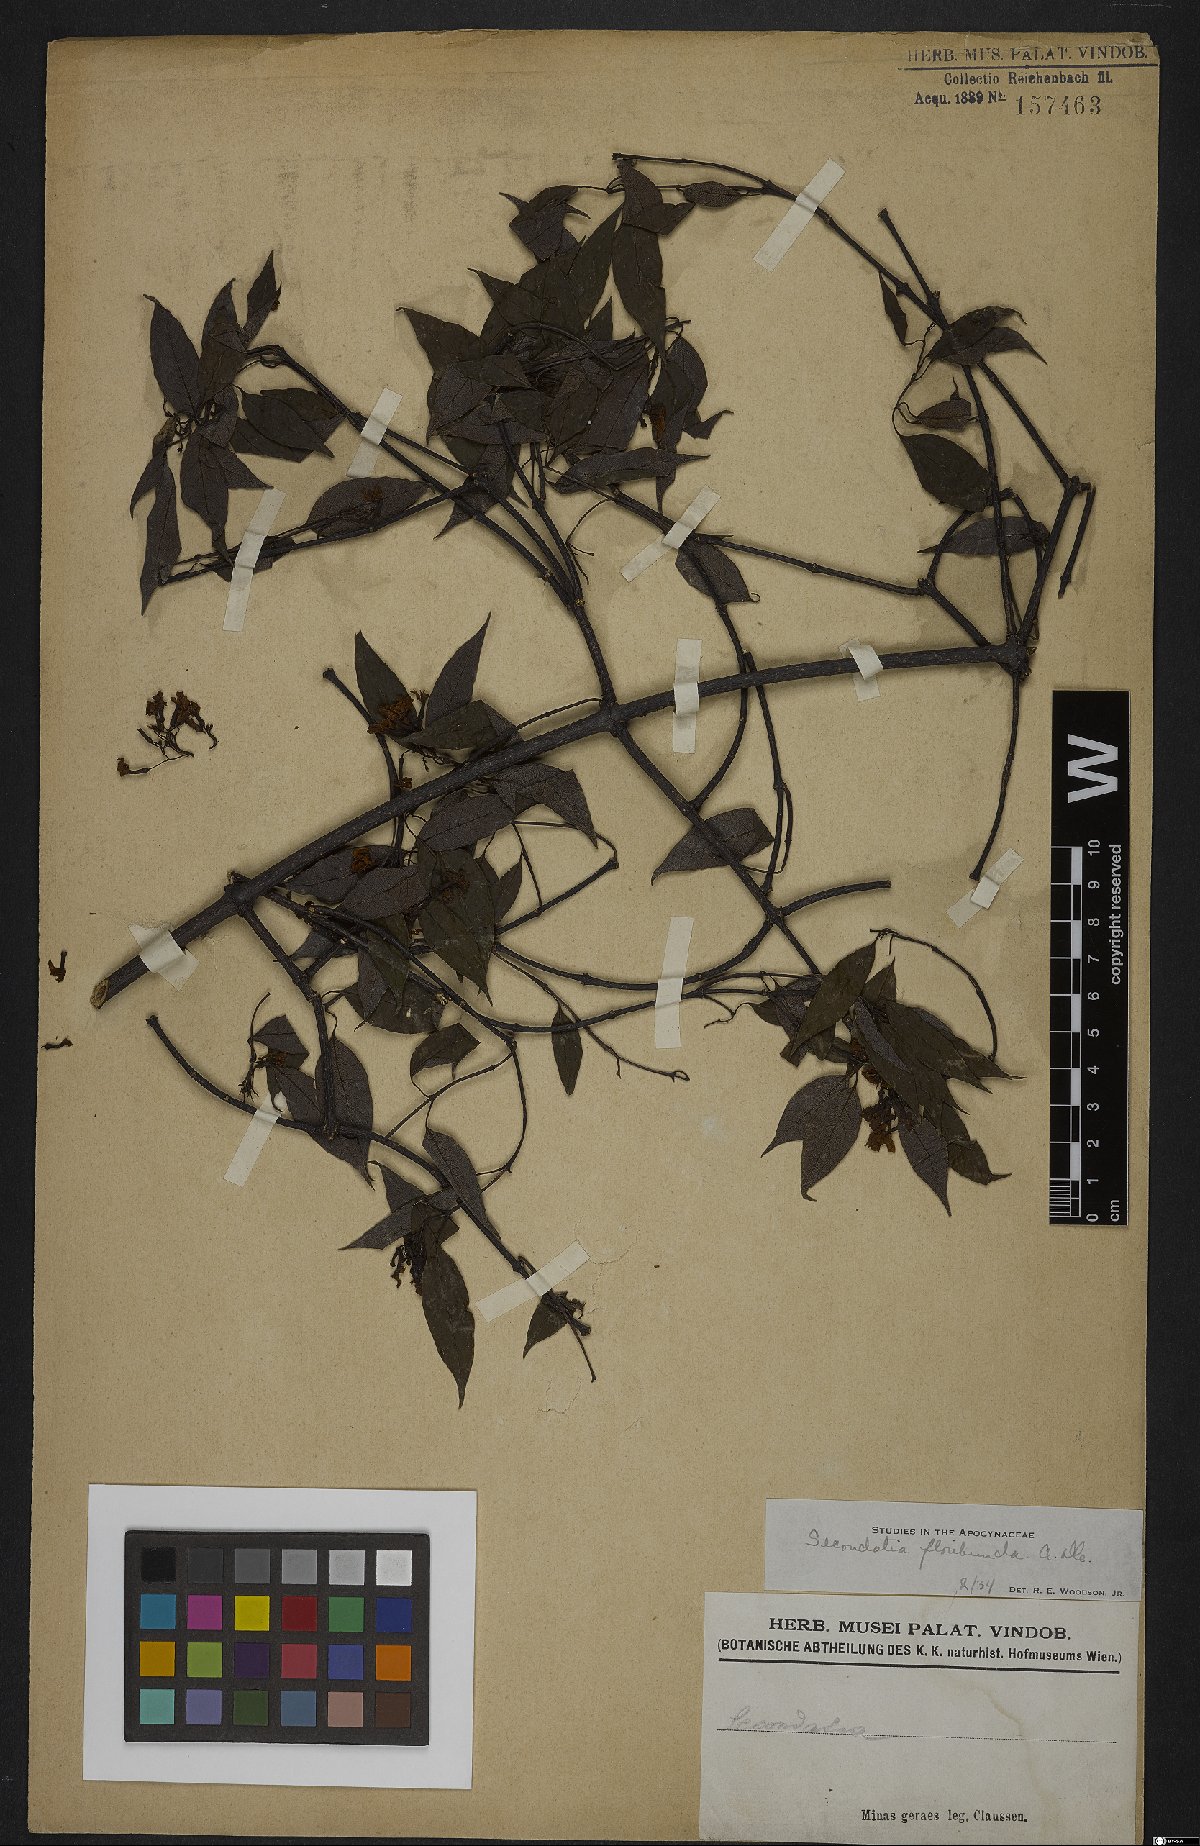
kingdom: Plantae
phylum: Tracheophyta
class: Magnoliopsida
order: Gentianales
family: Apocynaceae
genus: Secondatia
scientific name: Secondatia floribunda
